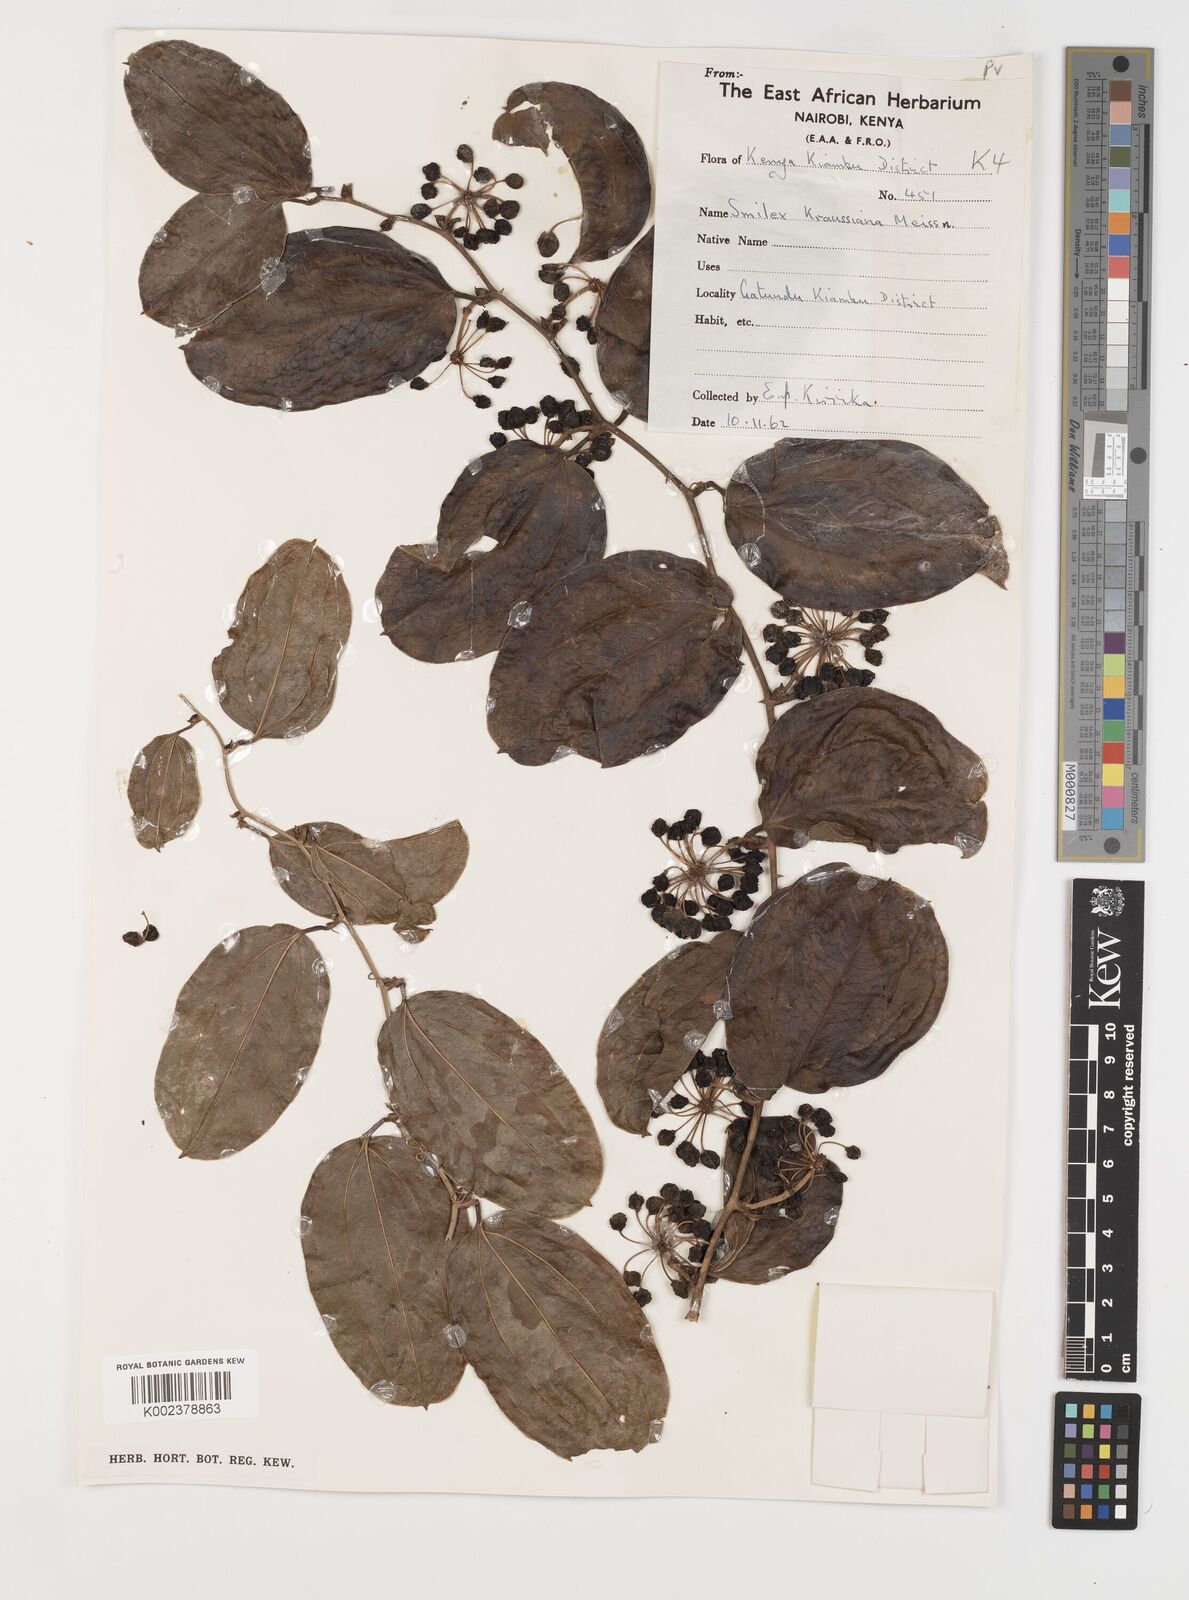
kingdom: Plantae
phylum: Tracheophyta
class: Liliopsida
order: Liliales
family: Smilacaceae
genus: Smilax
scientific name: Smilax anceps
